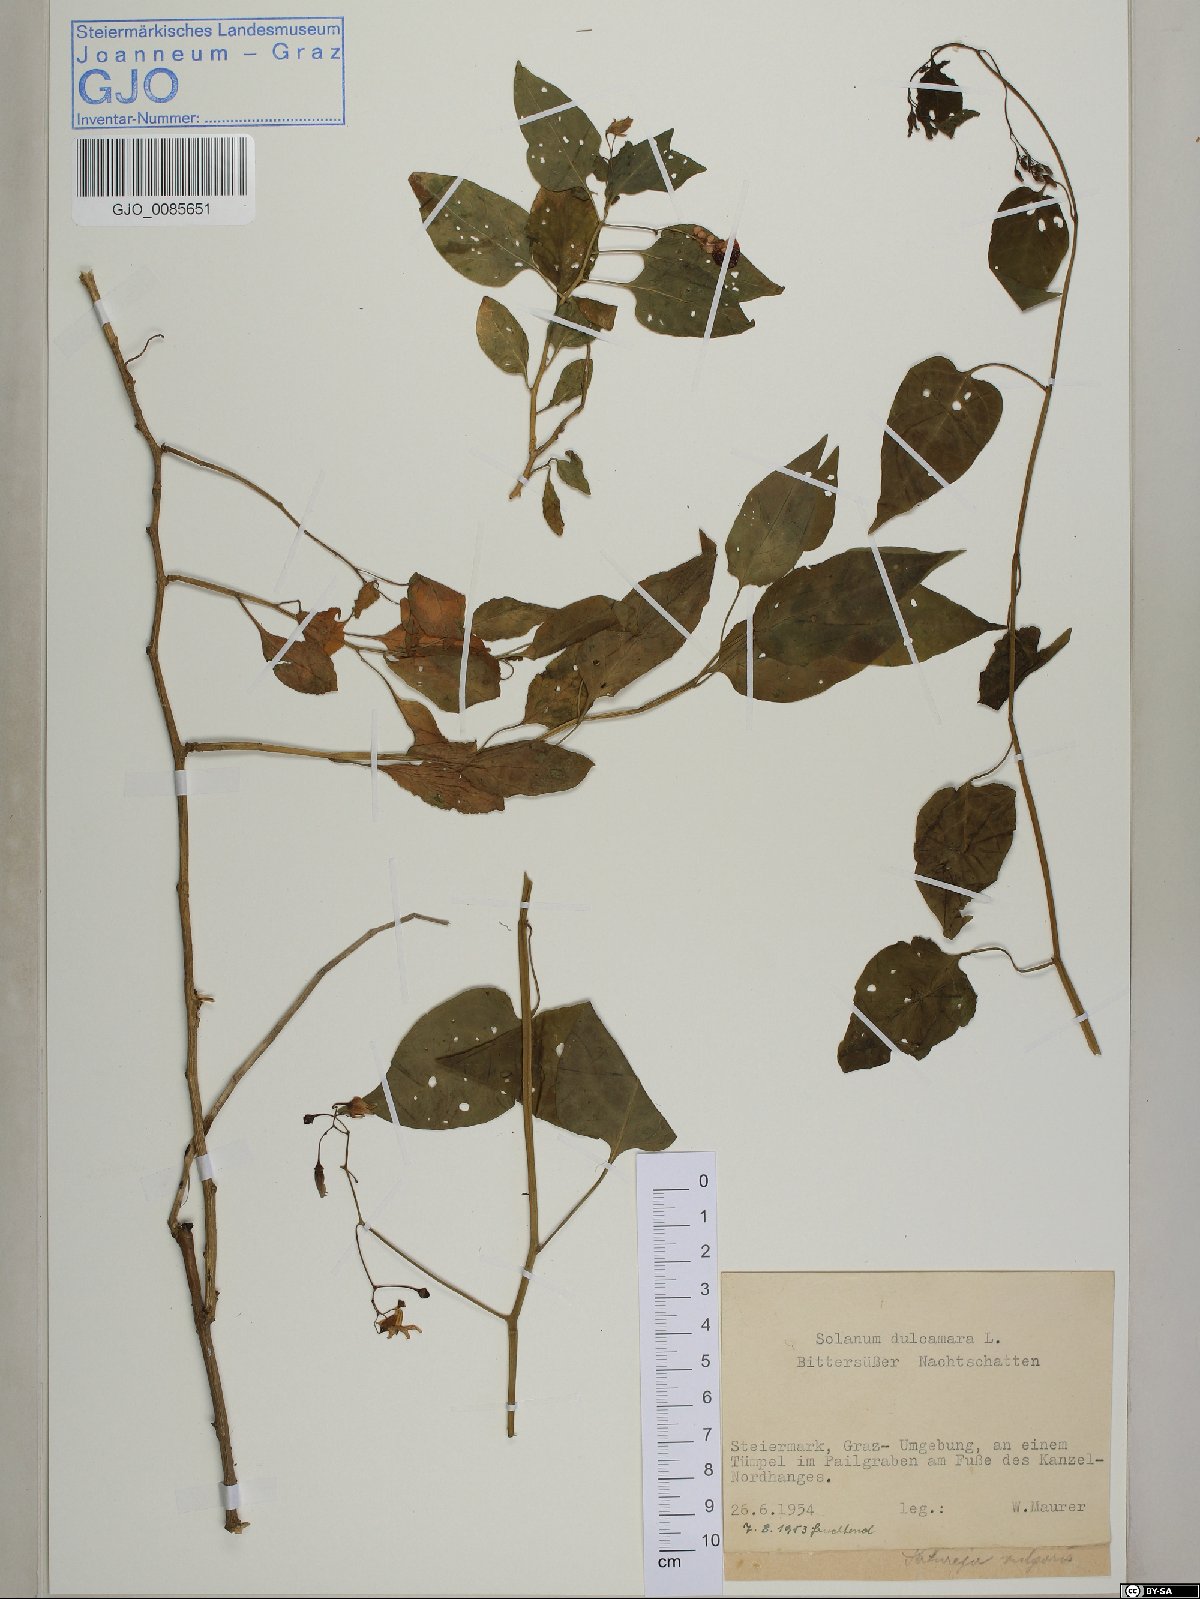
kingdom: Plantae
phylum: Tracheophyta
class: Magnoliopsida
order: Solanales
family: Solanaceae
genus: Solanum
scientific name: Solanum dulcamara
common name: Climbing nightshade
